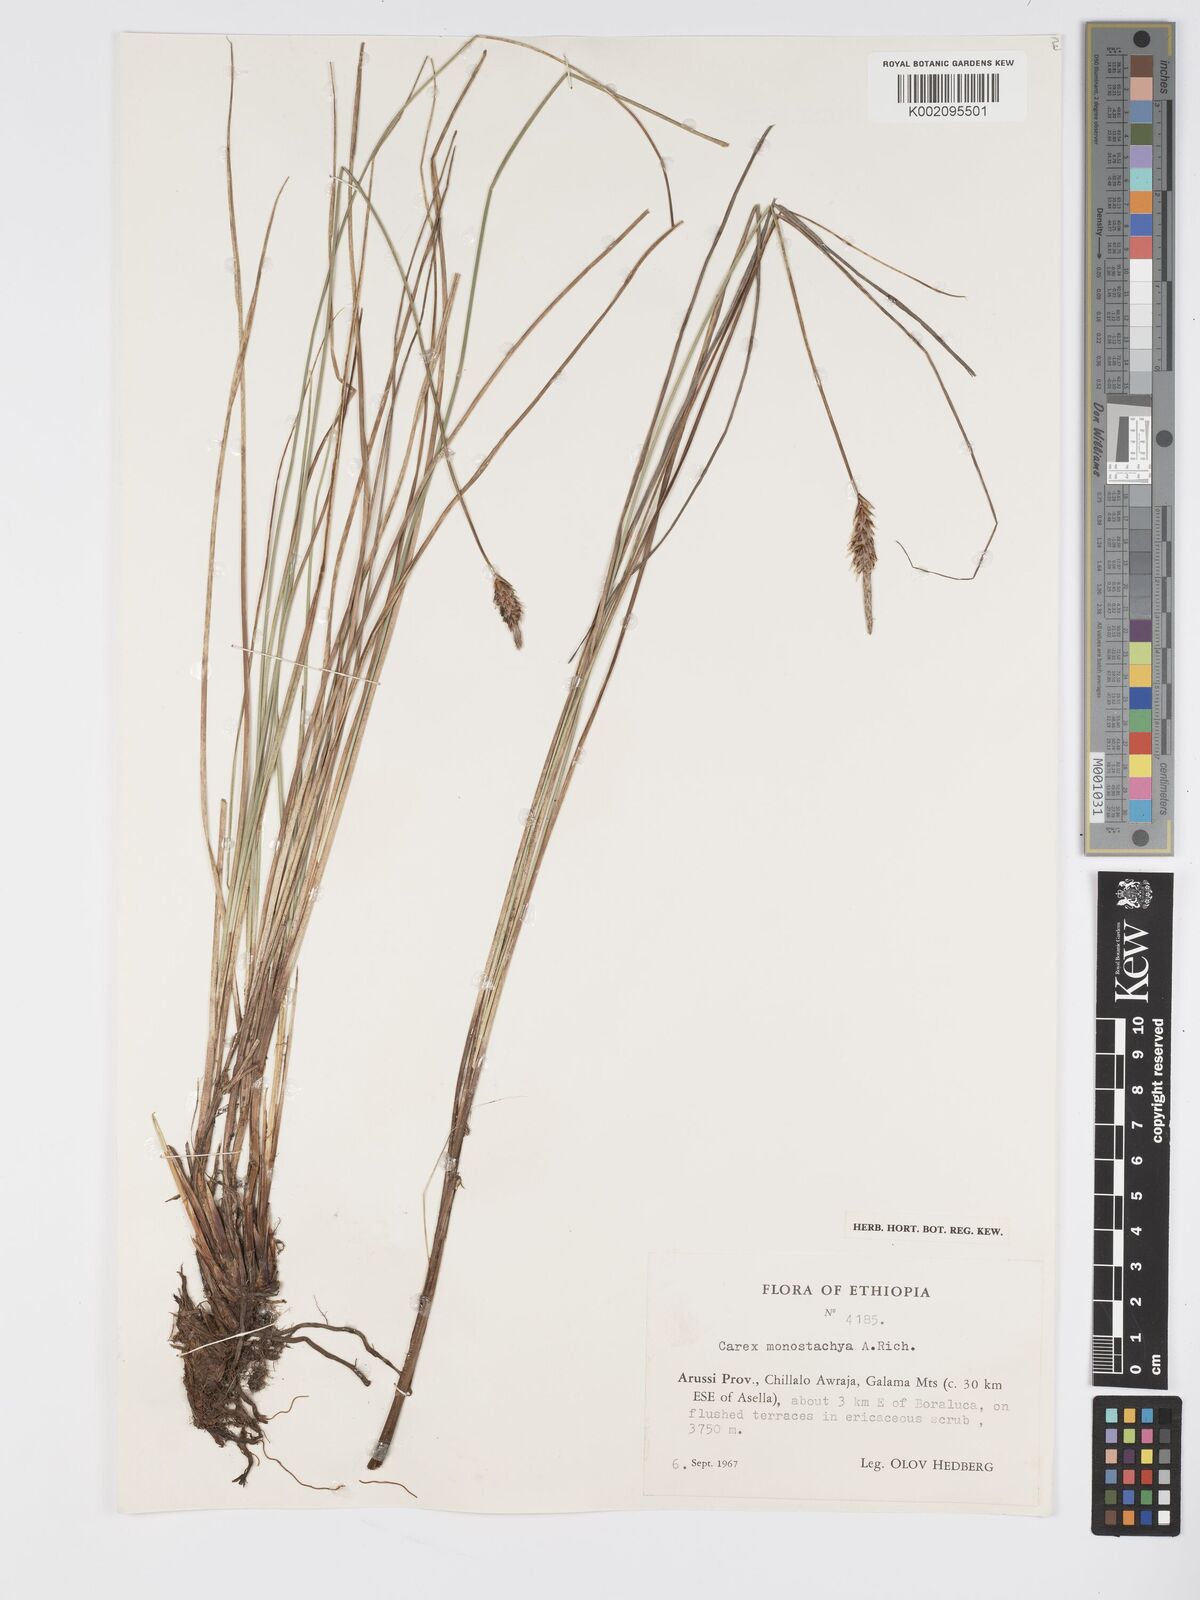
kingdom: Plantae
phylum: Tracheophyta
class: Liliopsida
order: Poales
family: Cyperaceae
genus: Carex
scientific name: Carex monostachya
